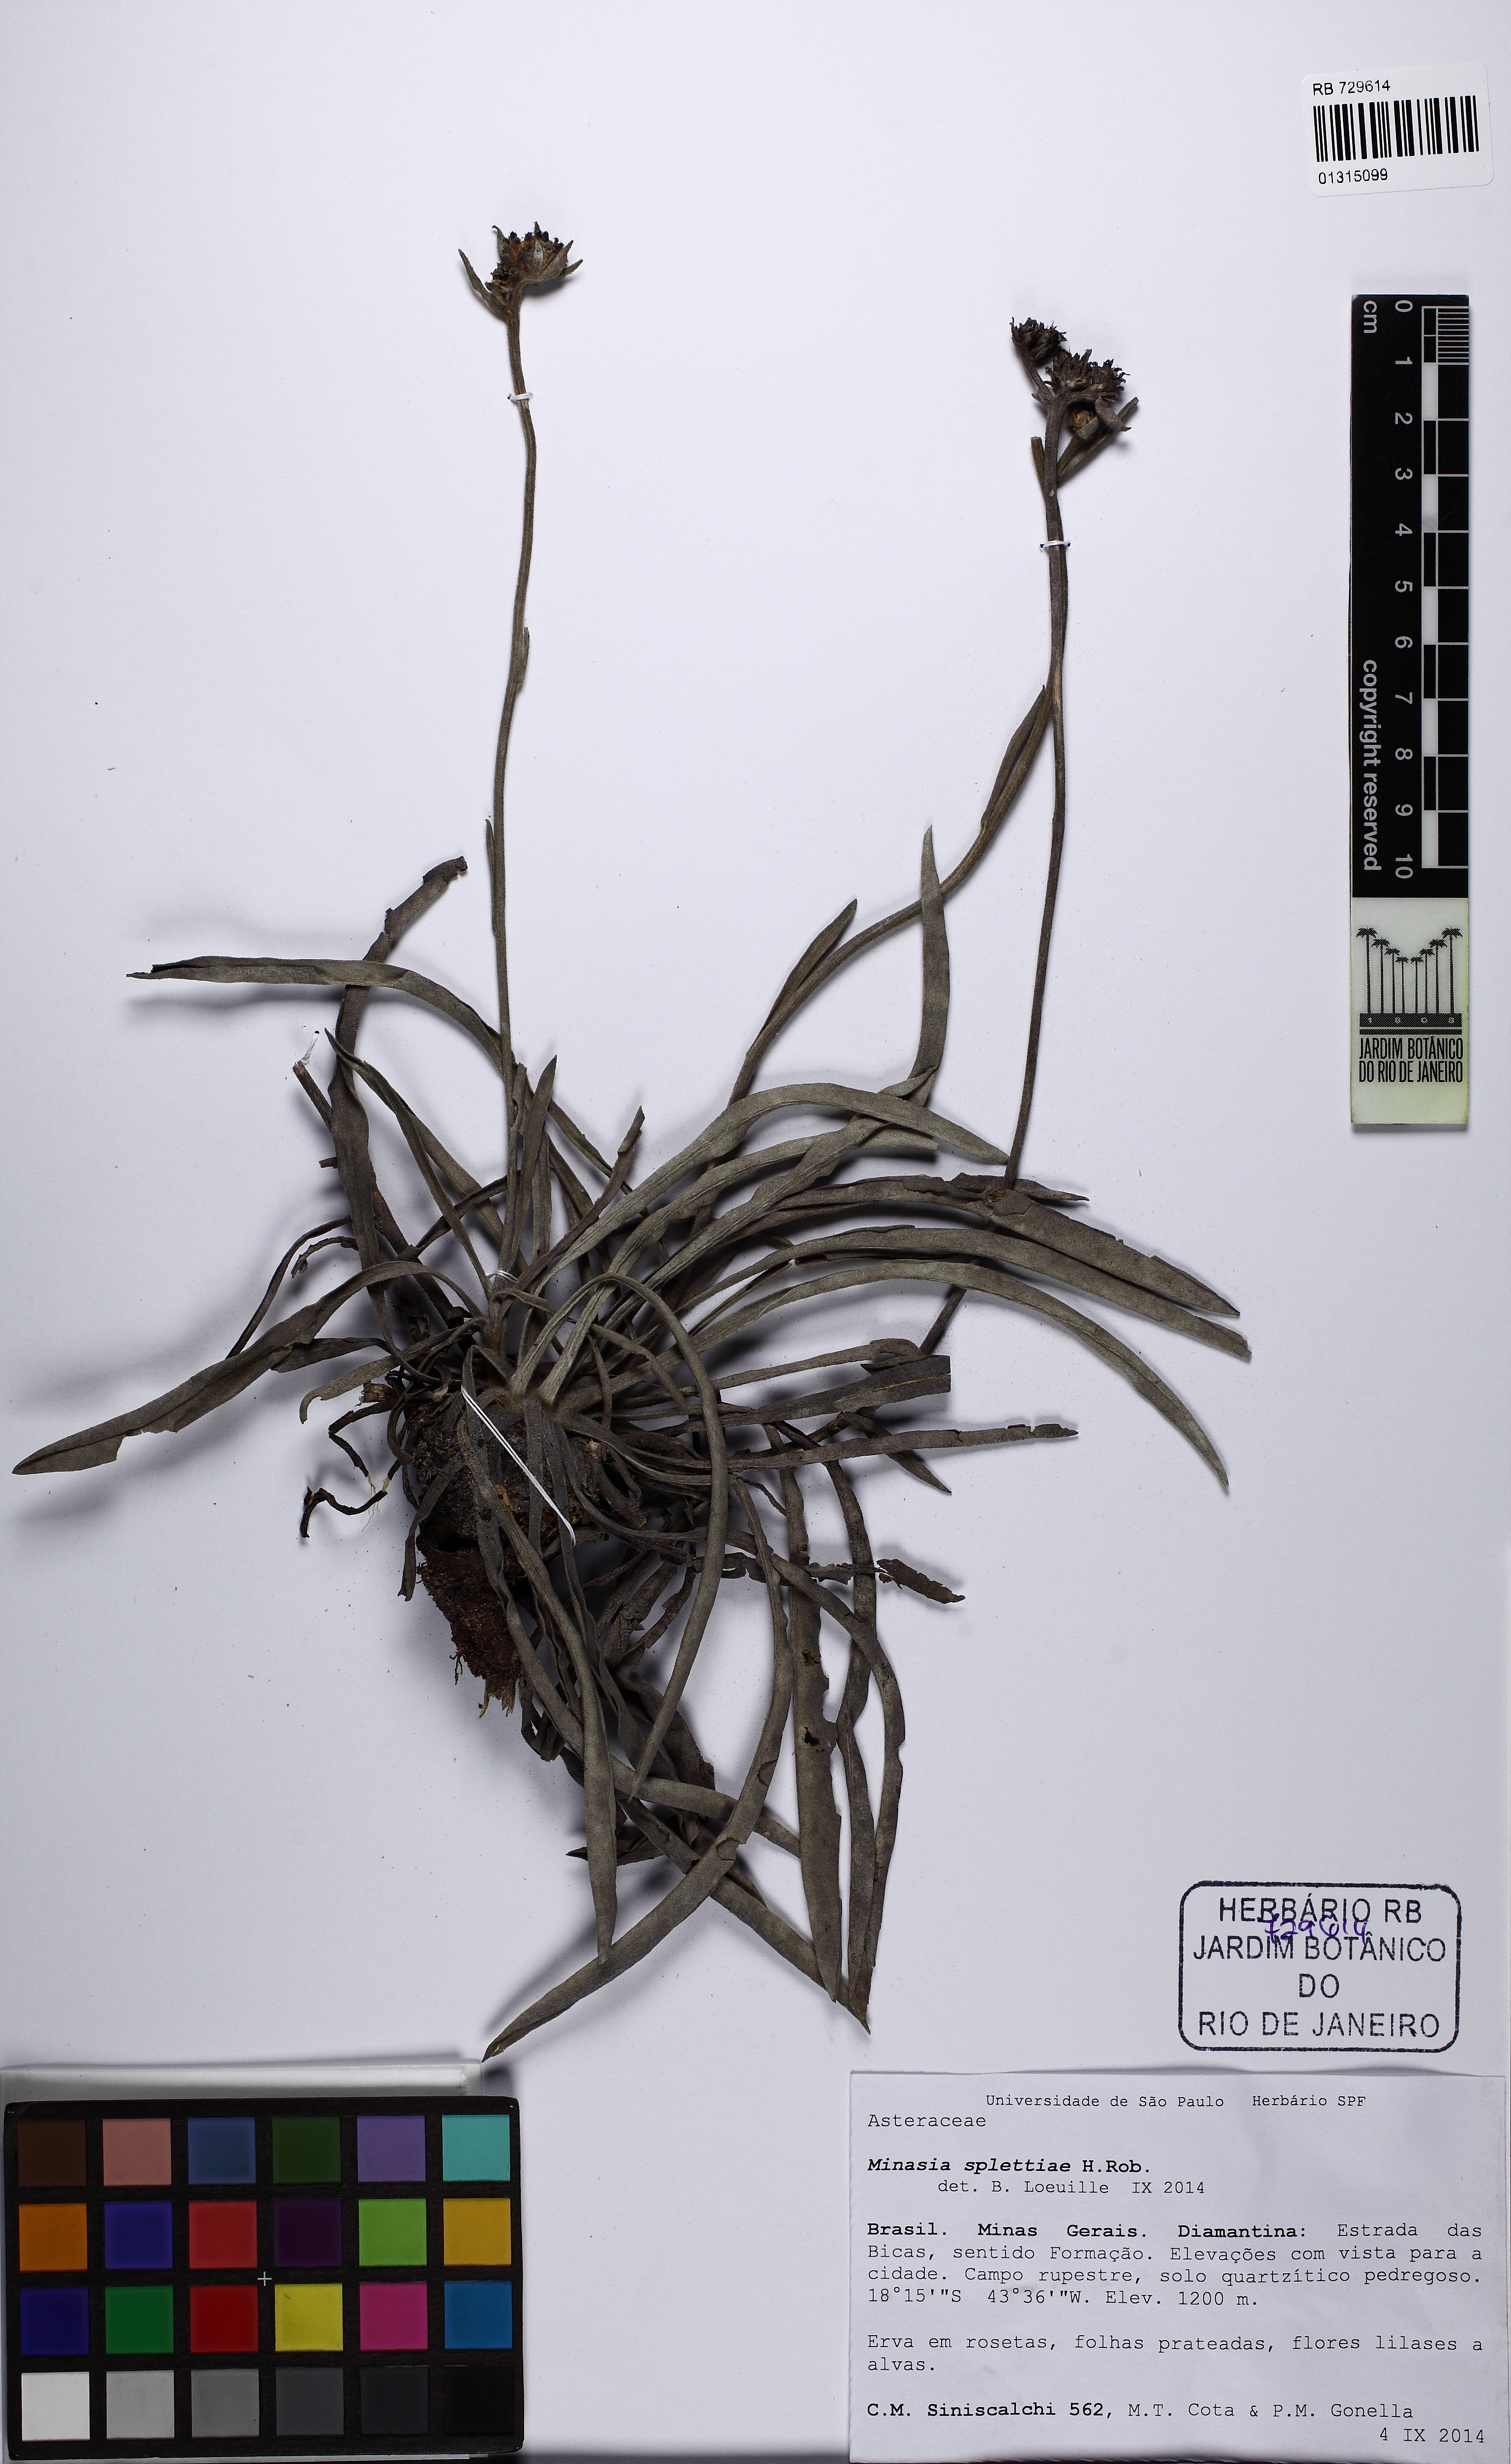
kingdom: Plantae
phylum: Tracheophyta
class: Magnoliopsida
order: Asterales
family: Asteraceae
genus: Minasia
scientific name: Minasia splettiae
